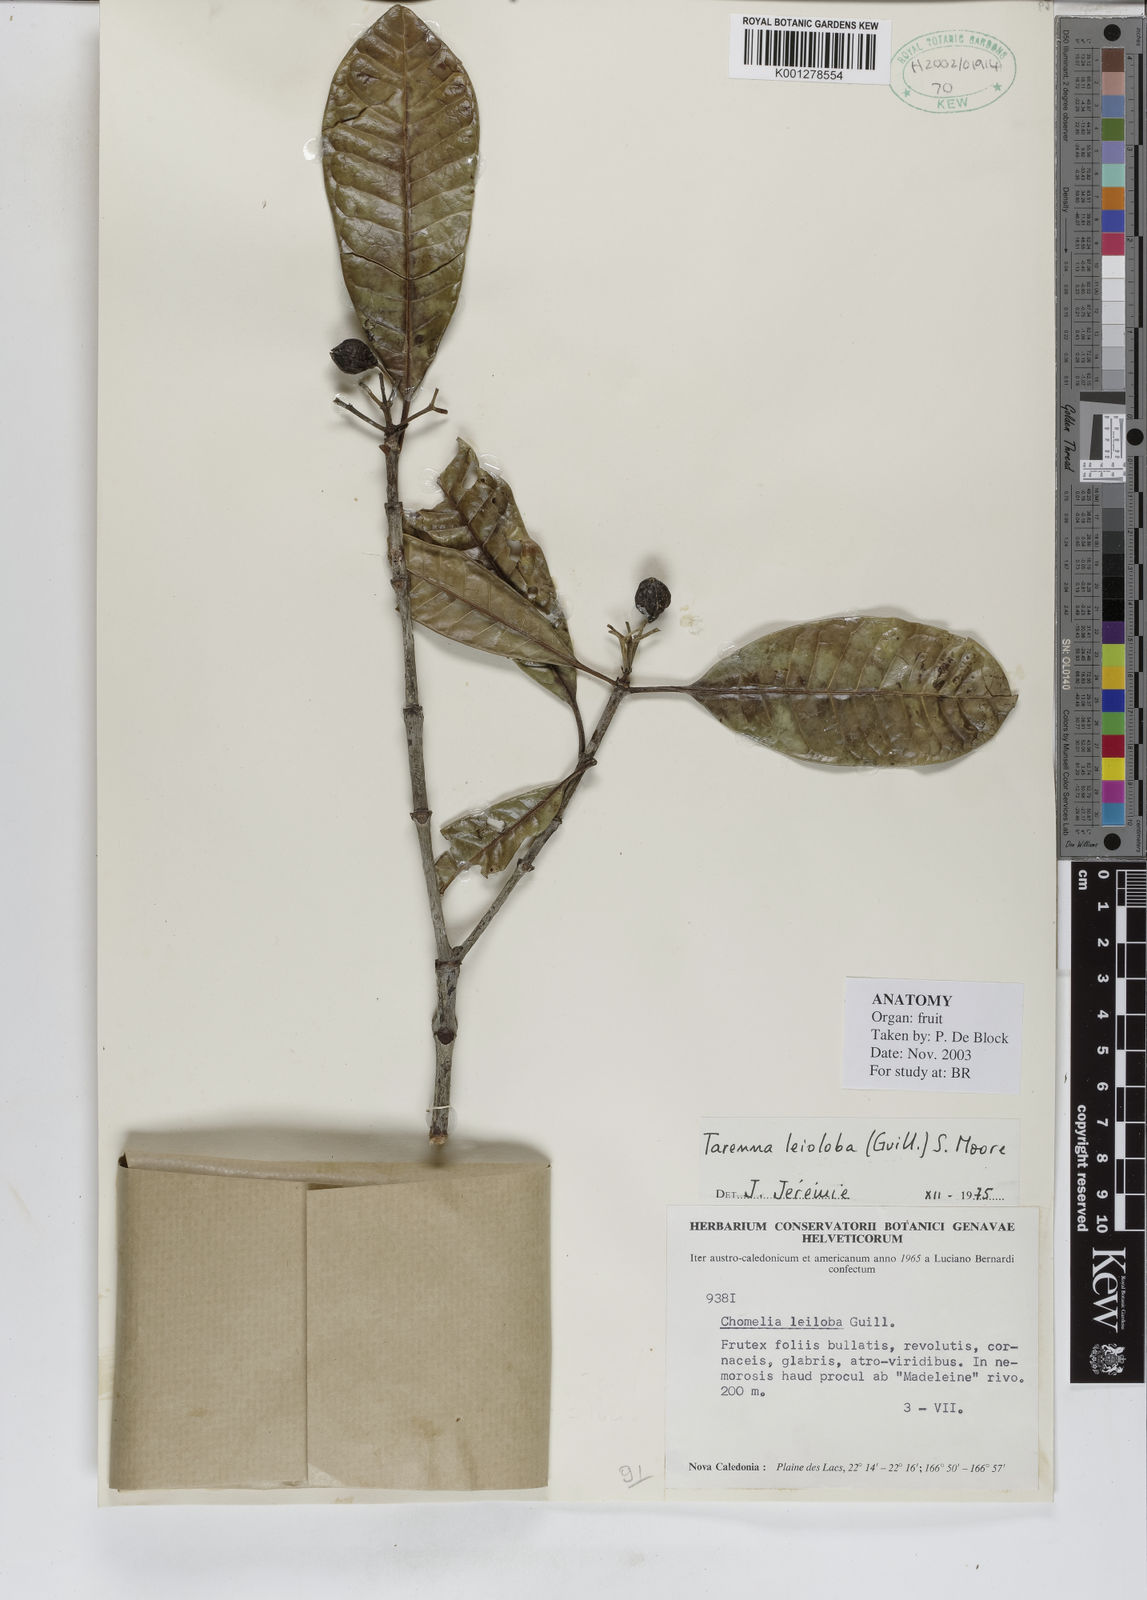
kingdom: Plantae
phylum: Tracheophyta
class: Magnoliopsida
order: Gentianales
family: Rubiaceae
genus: Tarenna
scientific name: Tarenna leioloba
